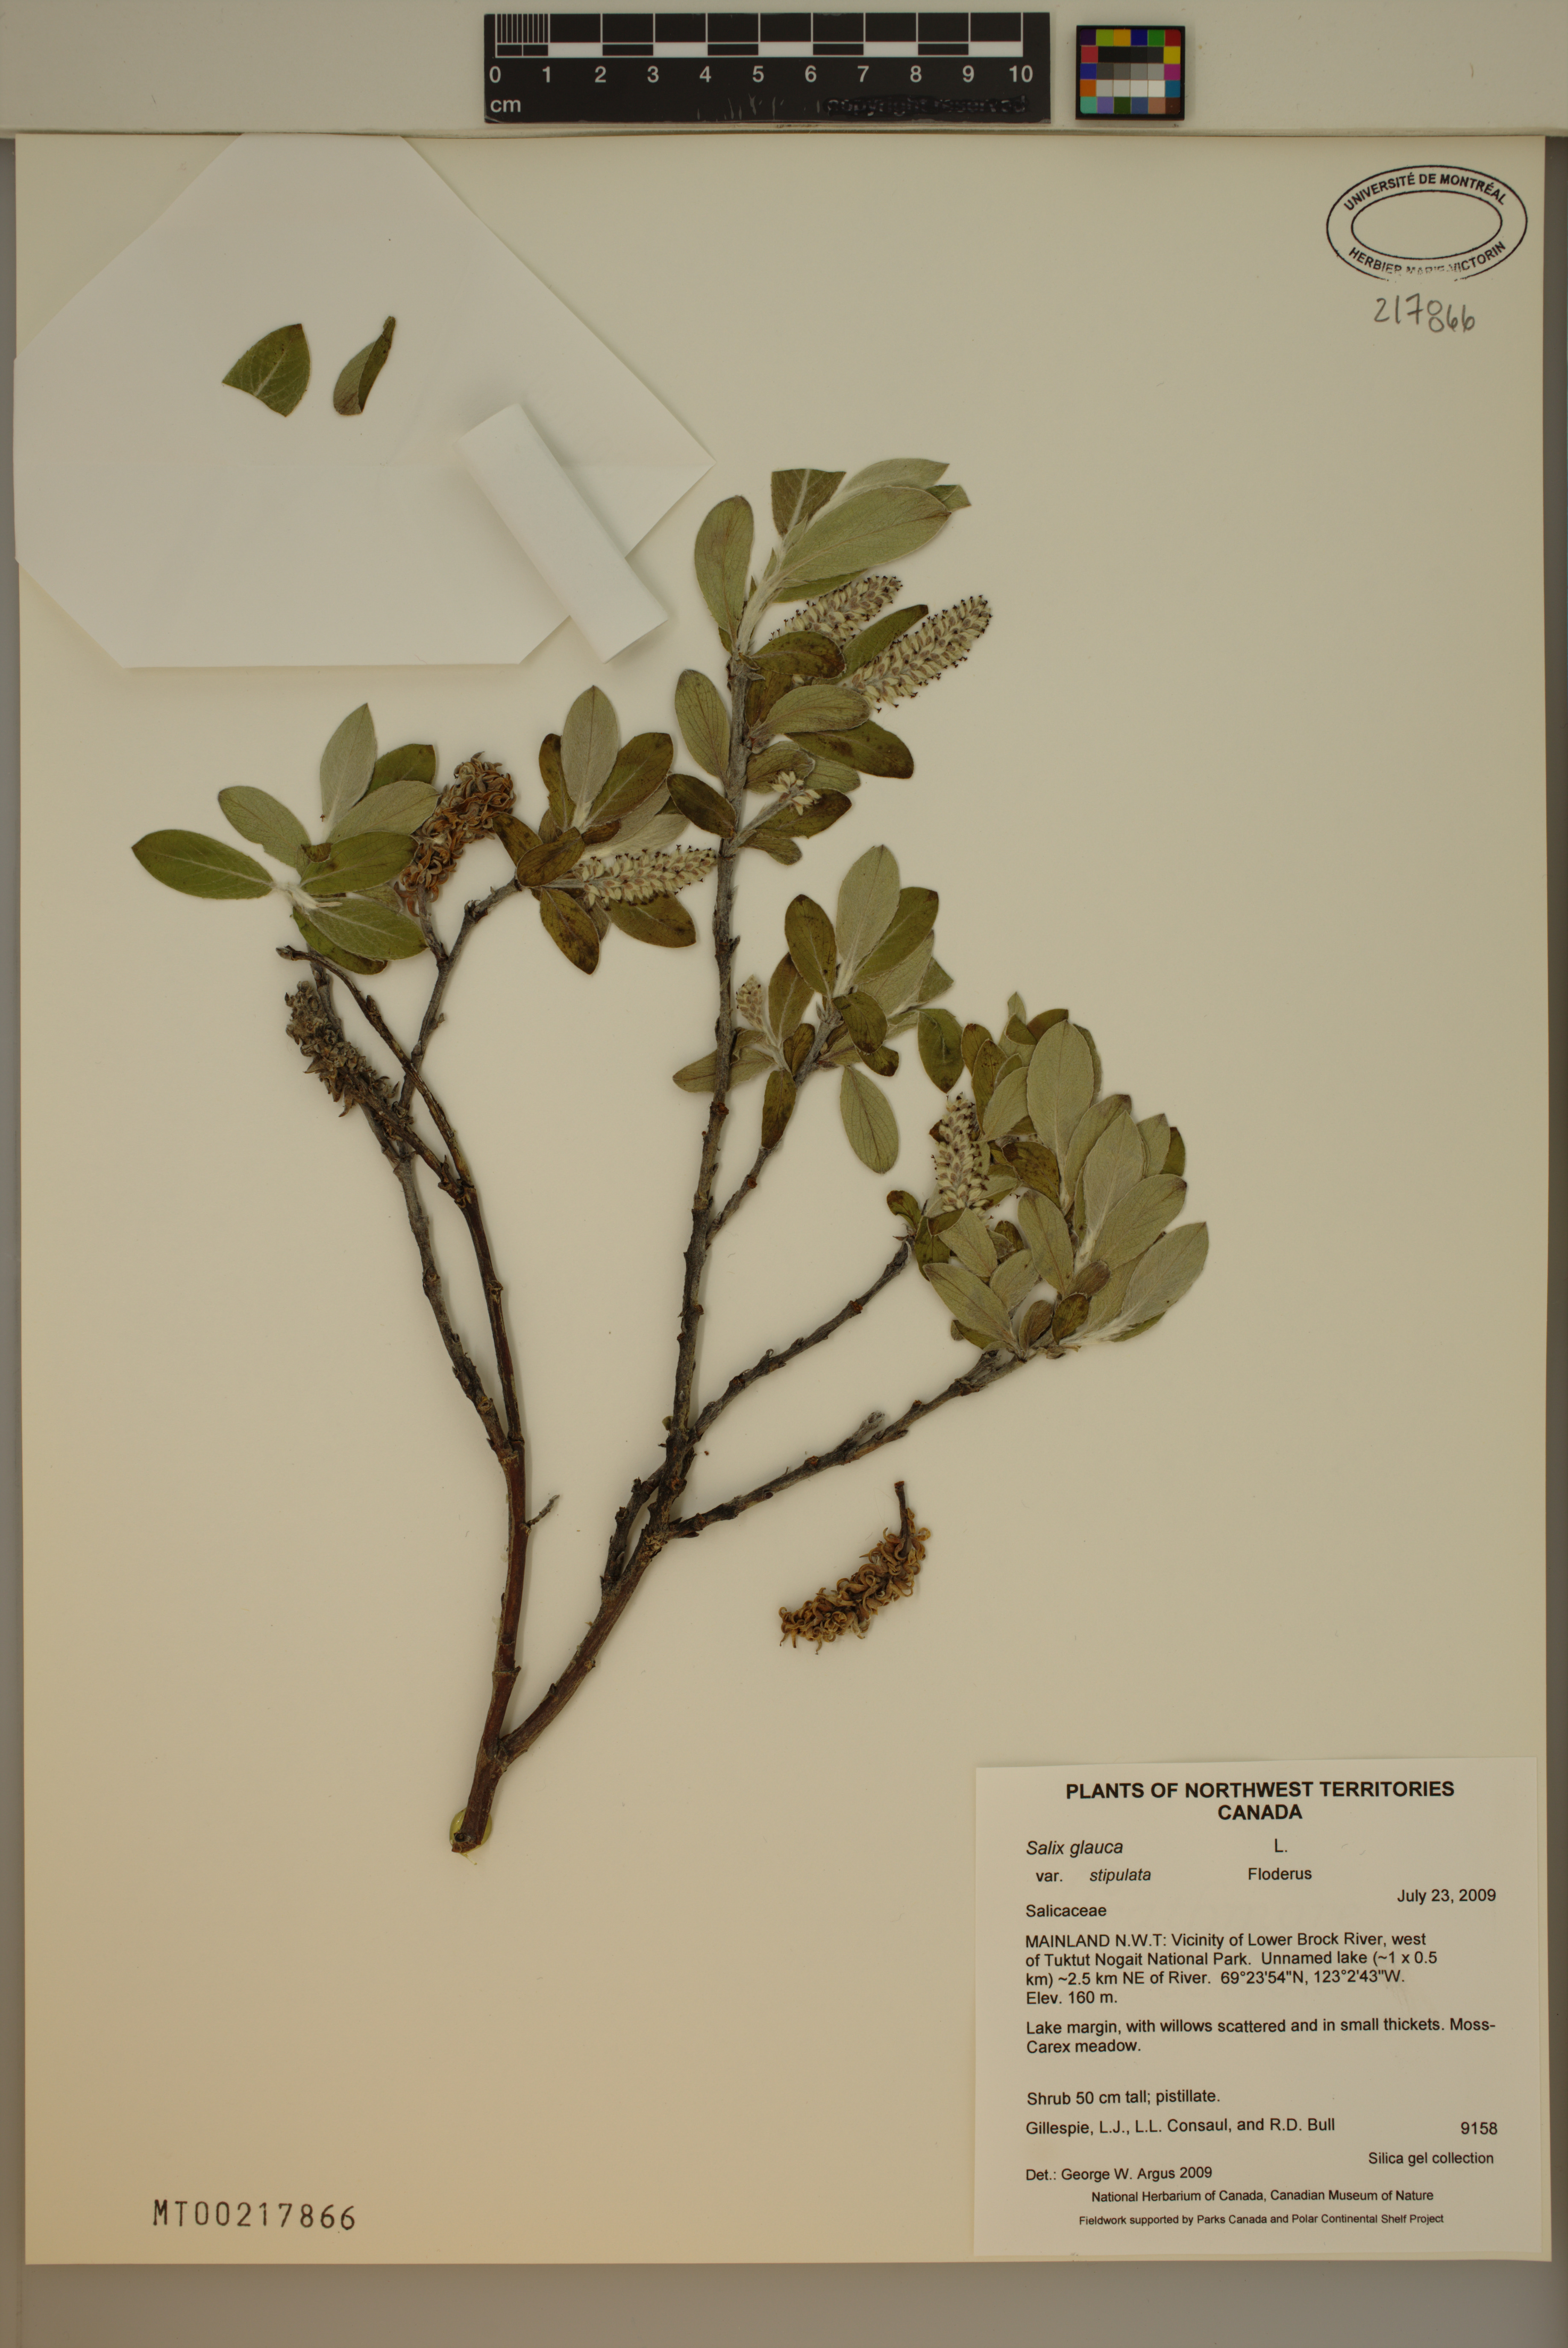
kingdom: Plantae
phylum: Tracheophyta
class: Magnoliopsida
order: Malpighiales
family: Salicaceae
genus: Salix
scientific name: Salix glauca
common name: Glaucous willow
